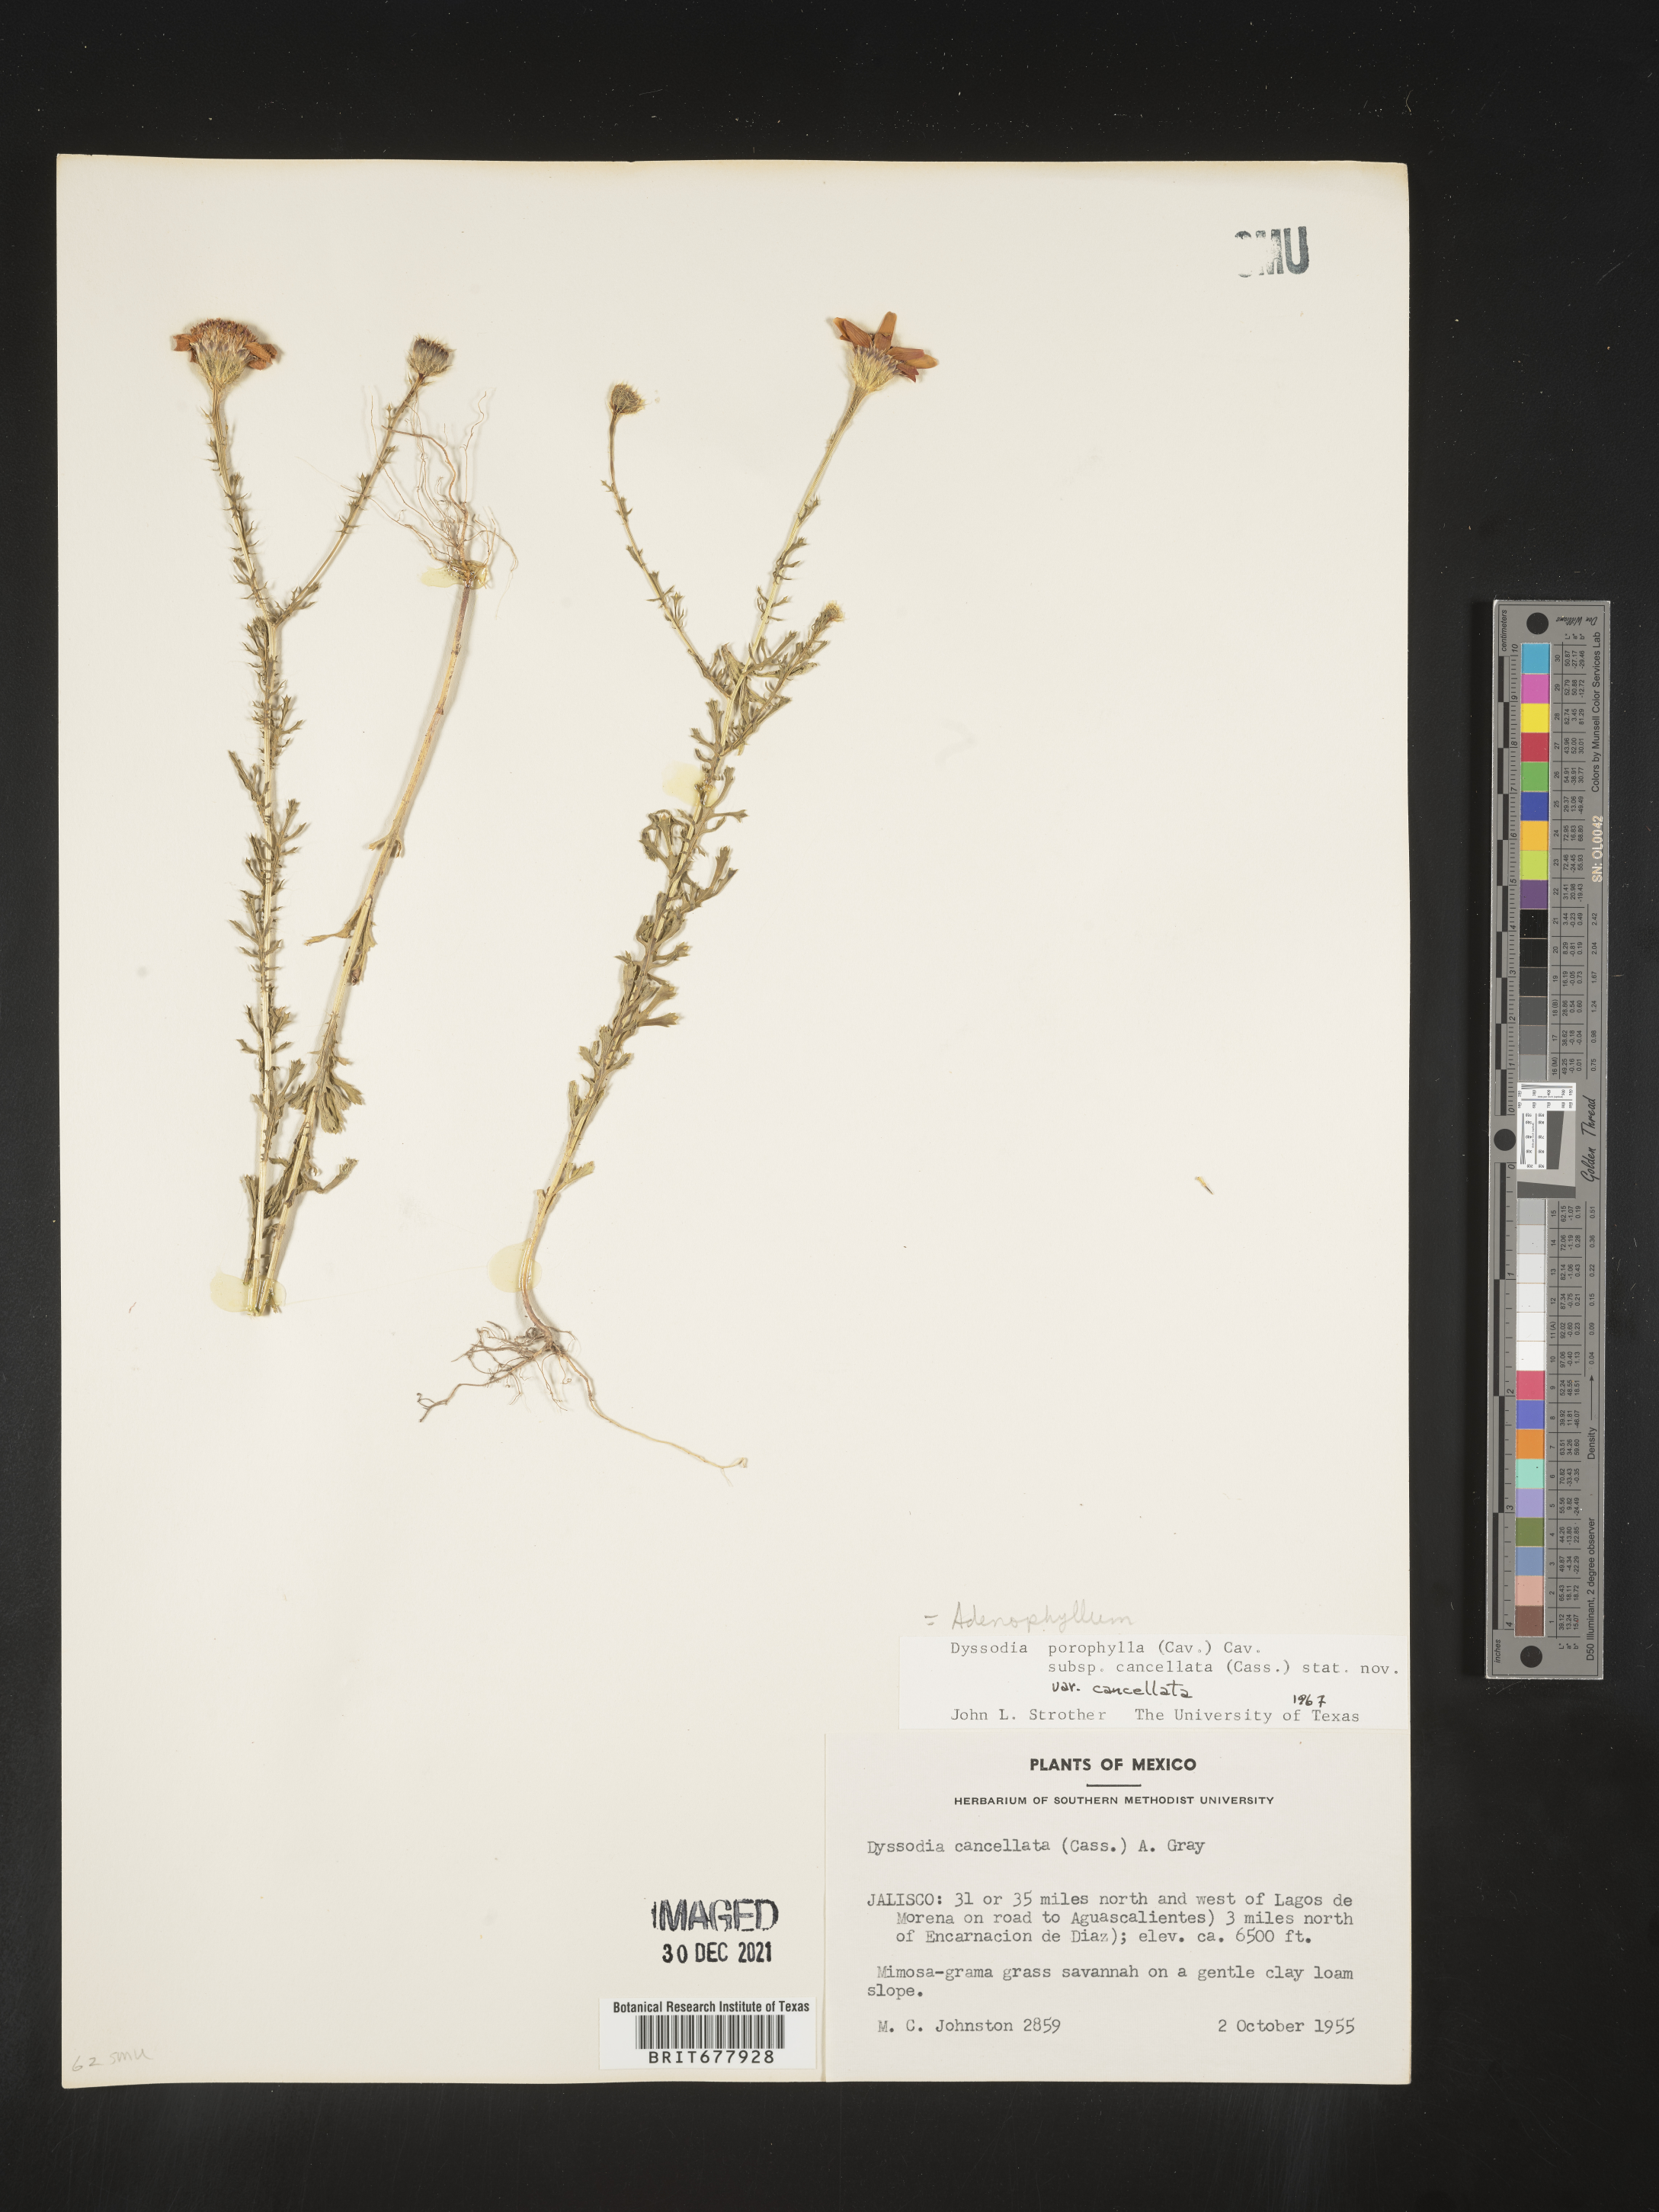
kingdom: Plantae
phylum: Tracheophyta
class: Magnoliopsida
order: Asterales
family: Asteraceae
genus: Adenophyllum
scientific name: Adenophyllum porophyllum
